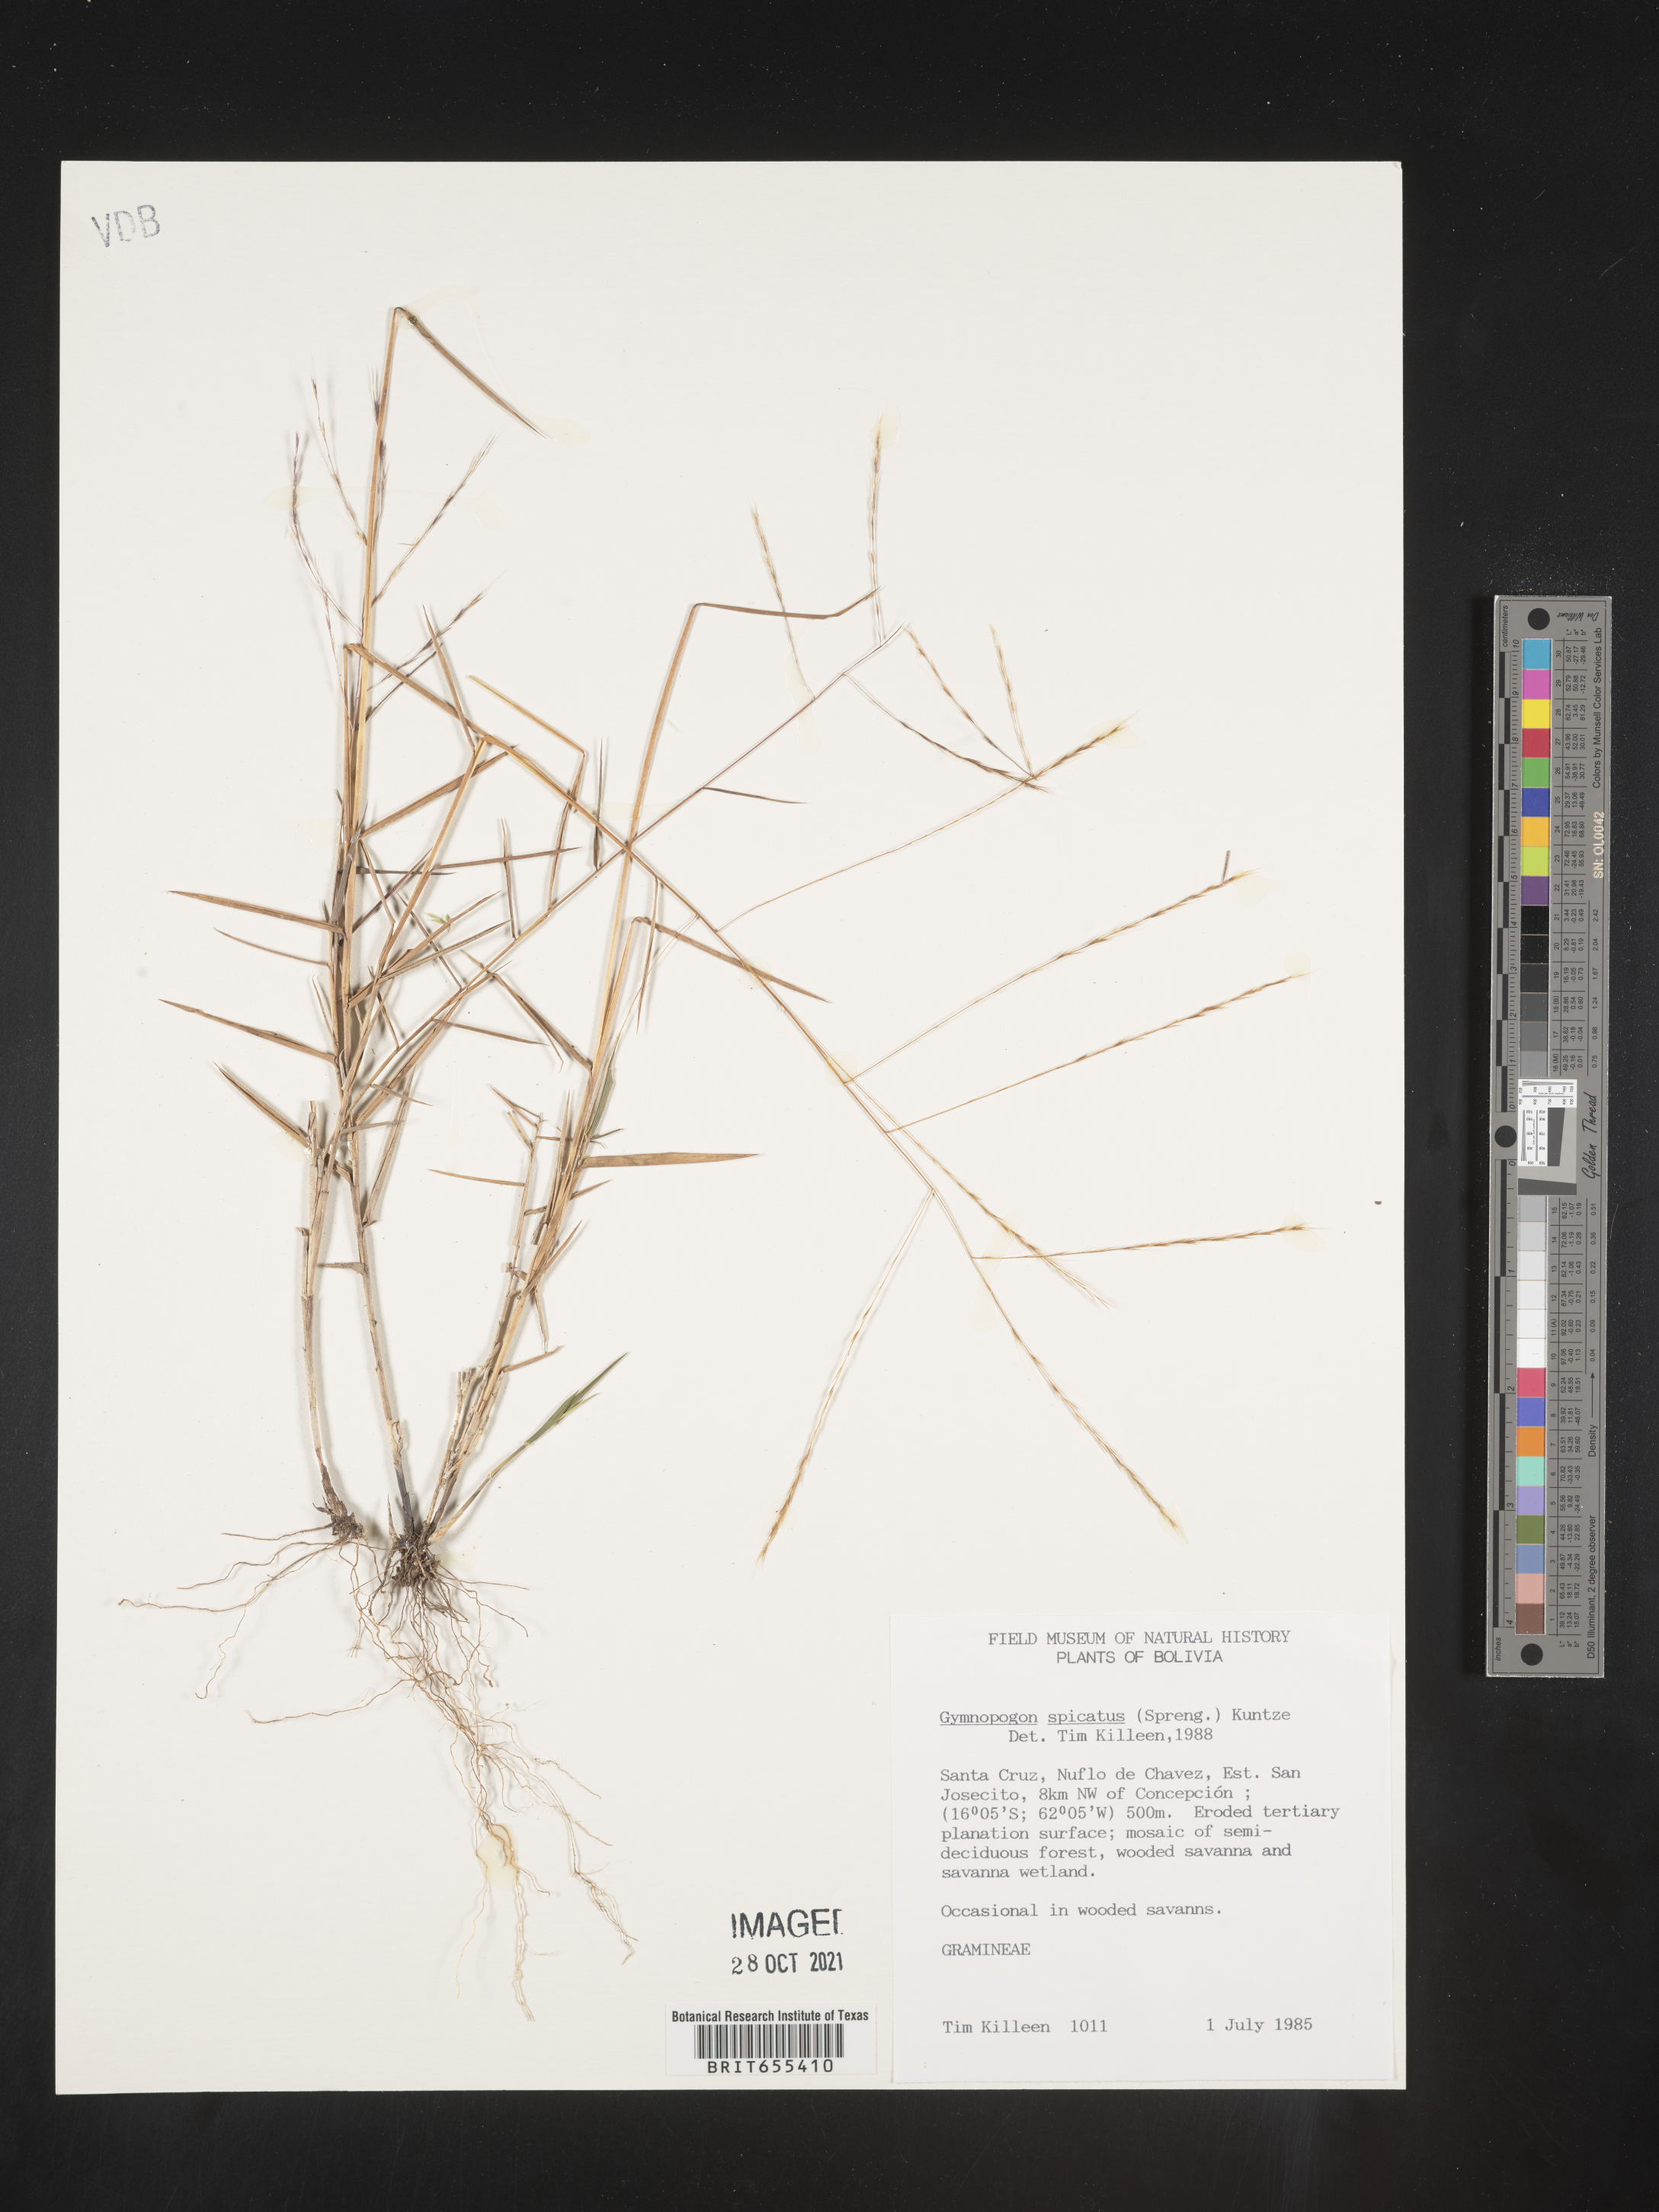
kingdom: Plantae
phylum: Tracheophyta
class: Liliopsida
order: Poales
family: Poaceae
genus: Gymnopogon
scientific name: Gymnopogon
